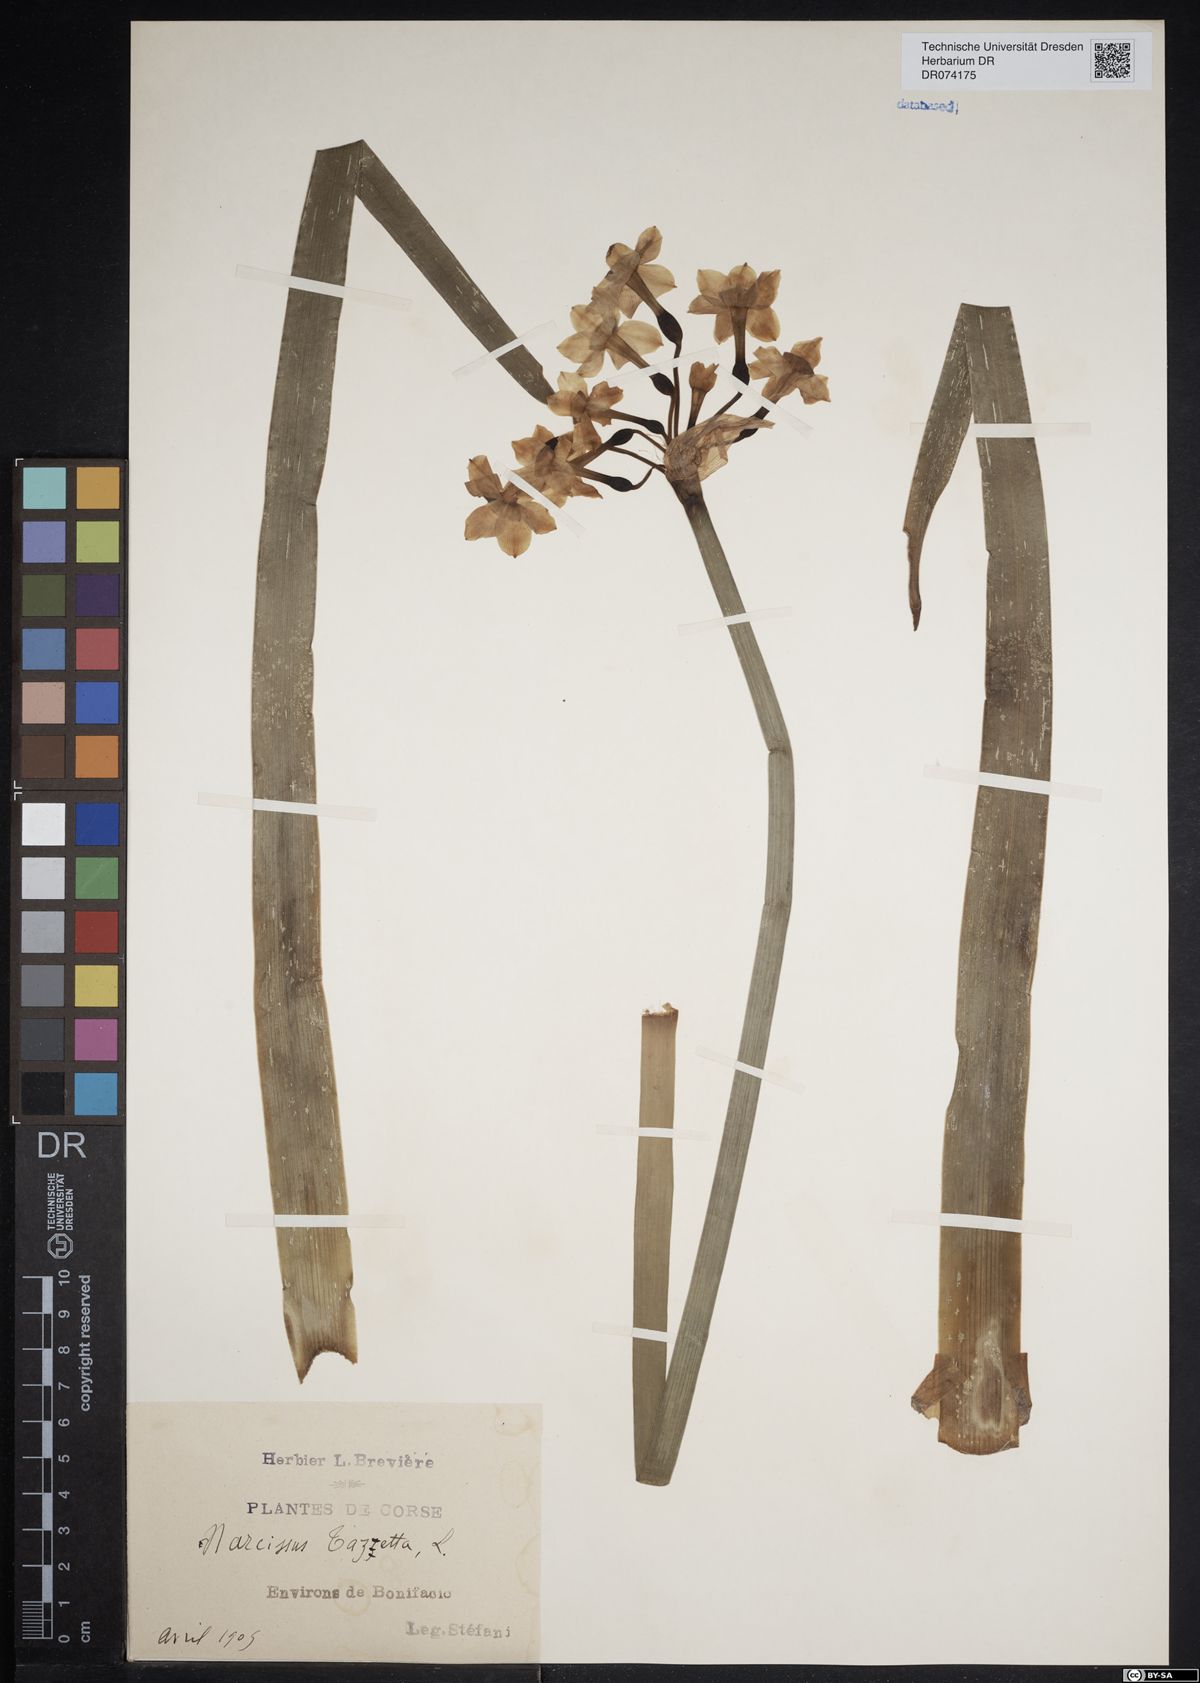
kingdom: Plantae
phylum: Tracheophyta
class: Liliopsida
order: Asparagales
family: Amaryllidaceae
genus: Narcissus
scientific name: Narcissus tazetta
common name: Bunch-flowered daffodil
